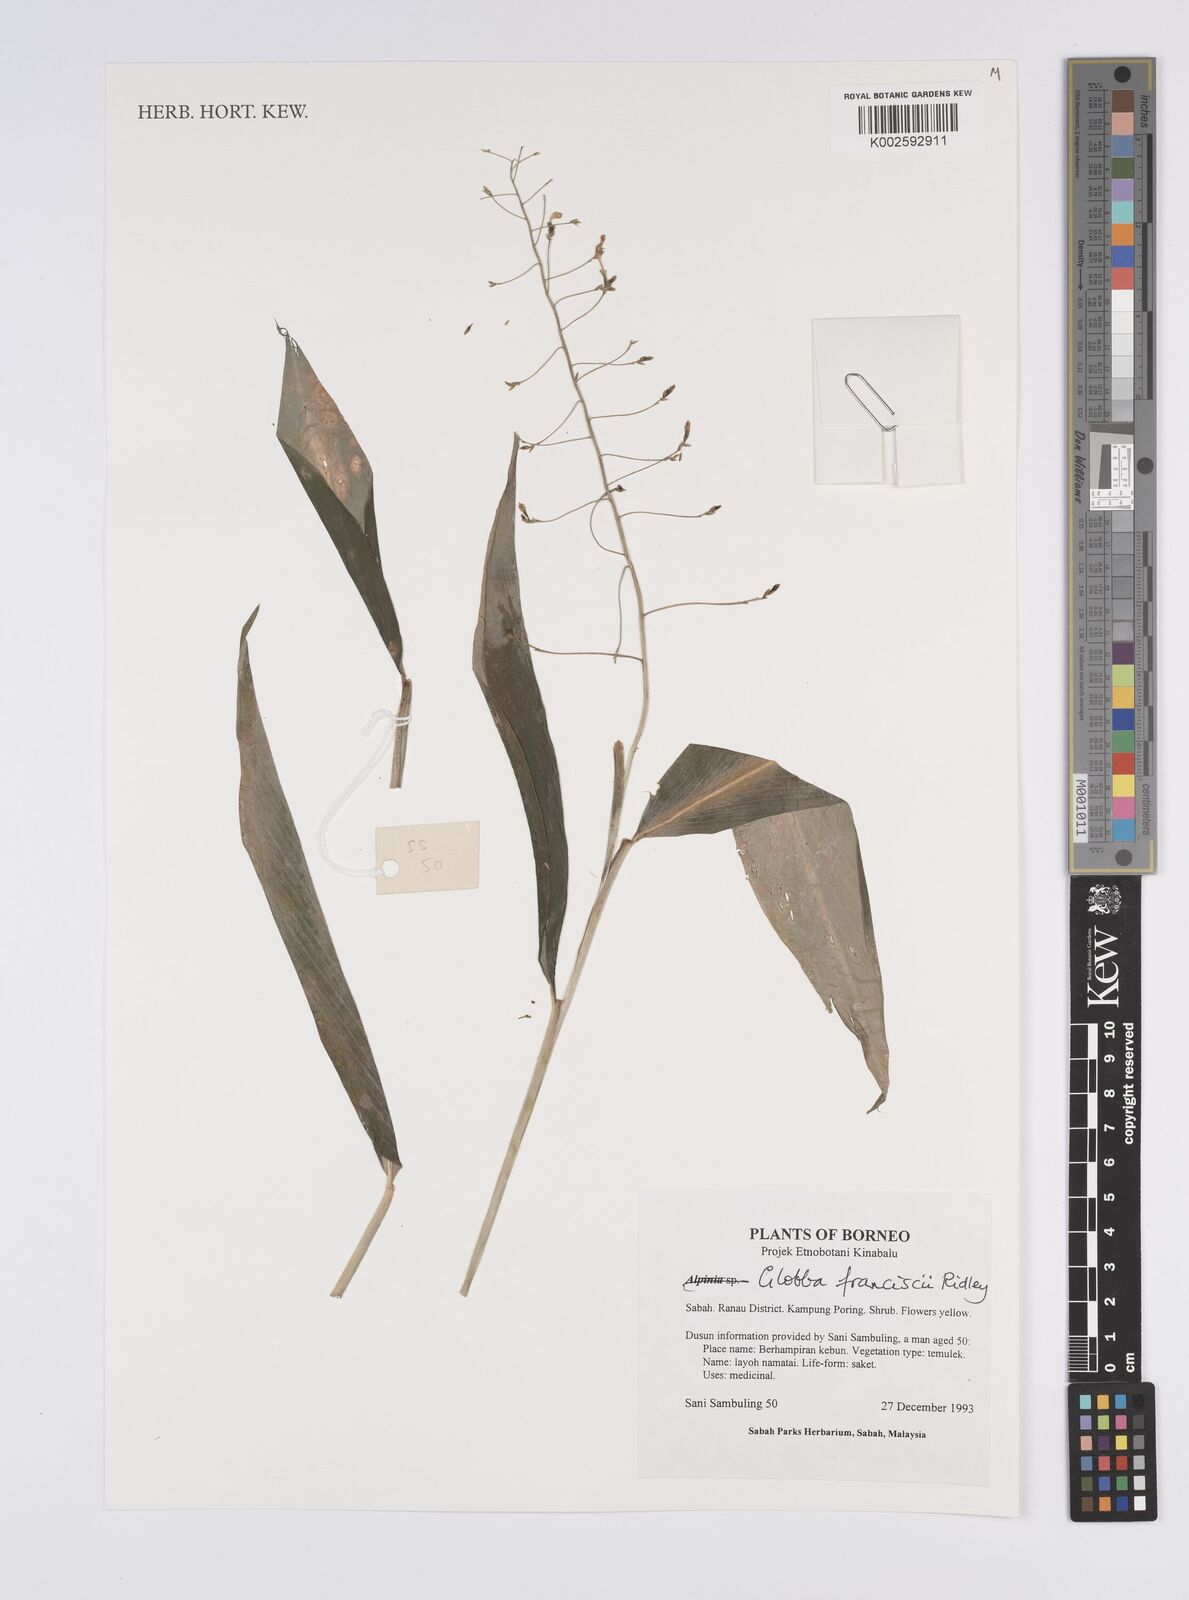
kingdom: Plantae
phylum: Tracheophyta
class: Liliopsida
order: Zingiberales
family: Zingiberaceae
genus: Globba
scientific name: Globba francisci
